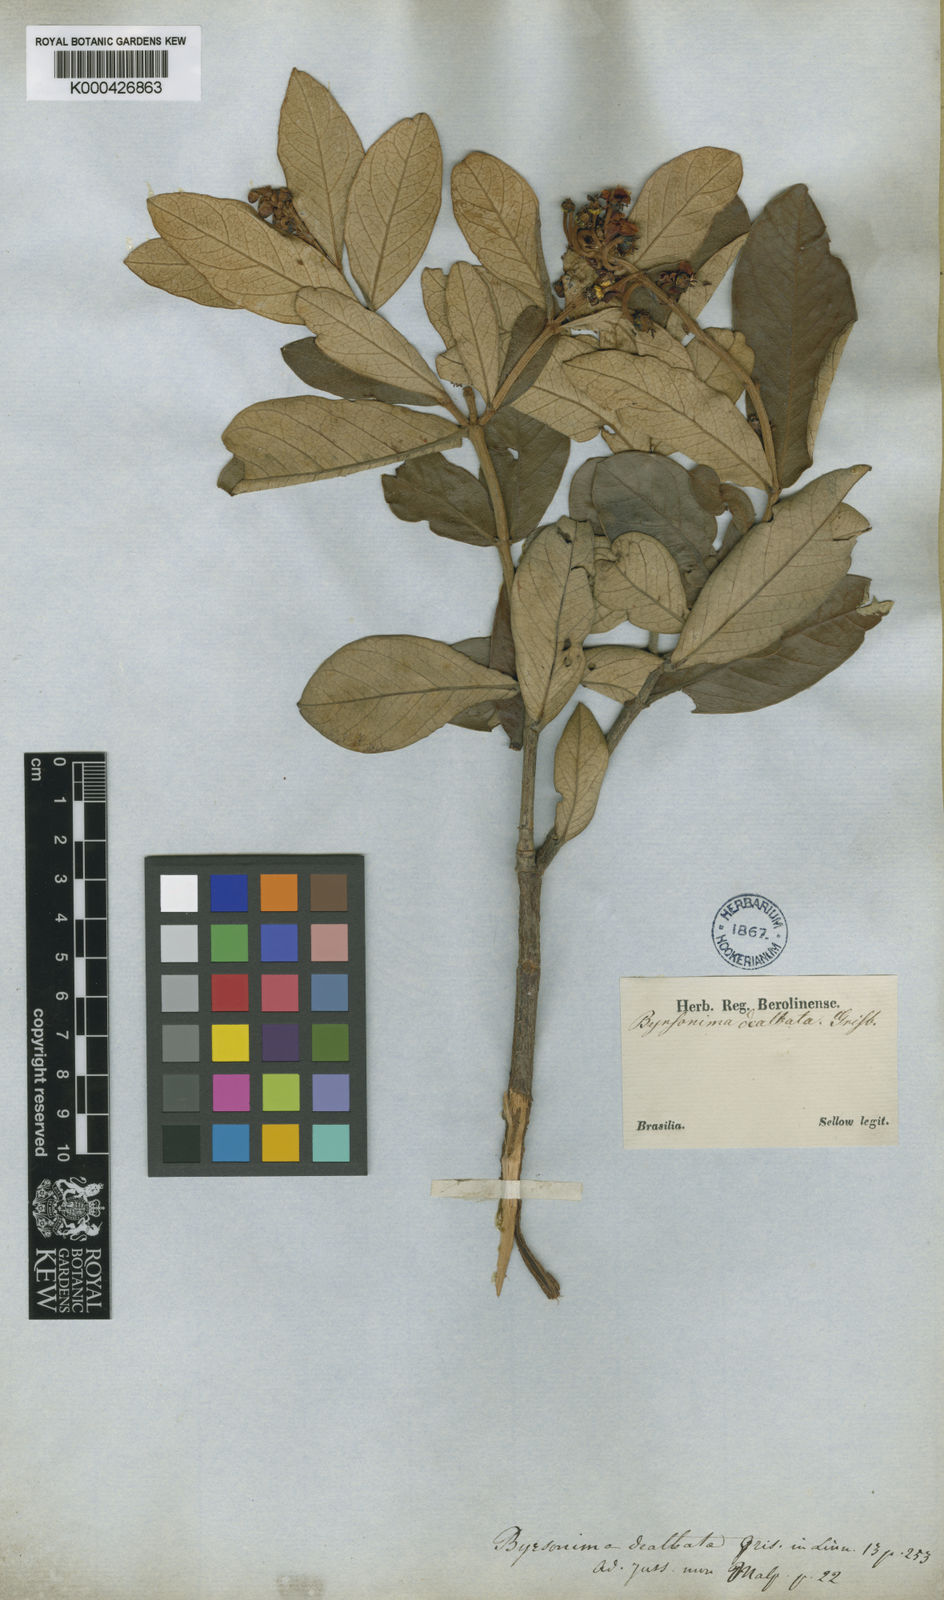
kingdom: Plantae
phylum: Tracheophyta
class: Magnoliopsida
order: Malpighiales
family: Malpighiaceae
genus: Byrsonima
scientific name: Byrsonima dealbata
